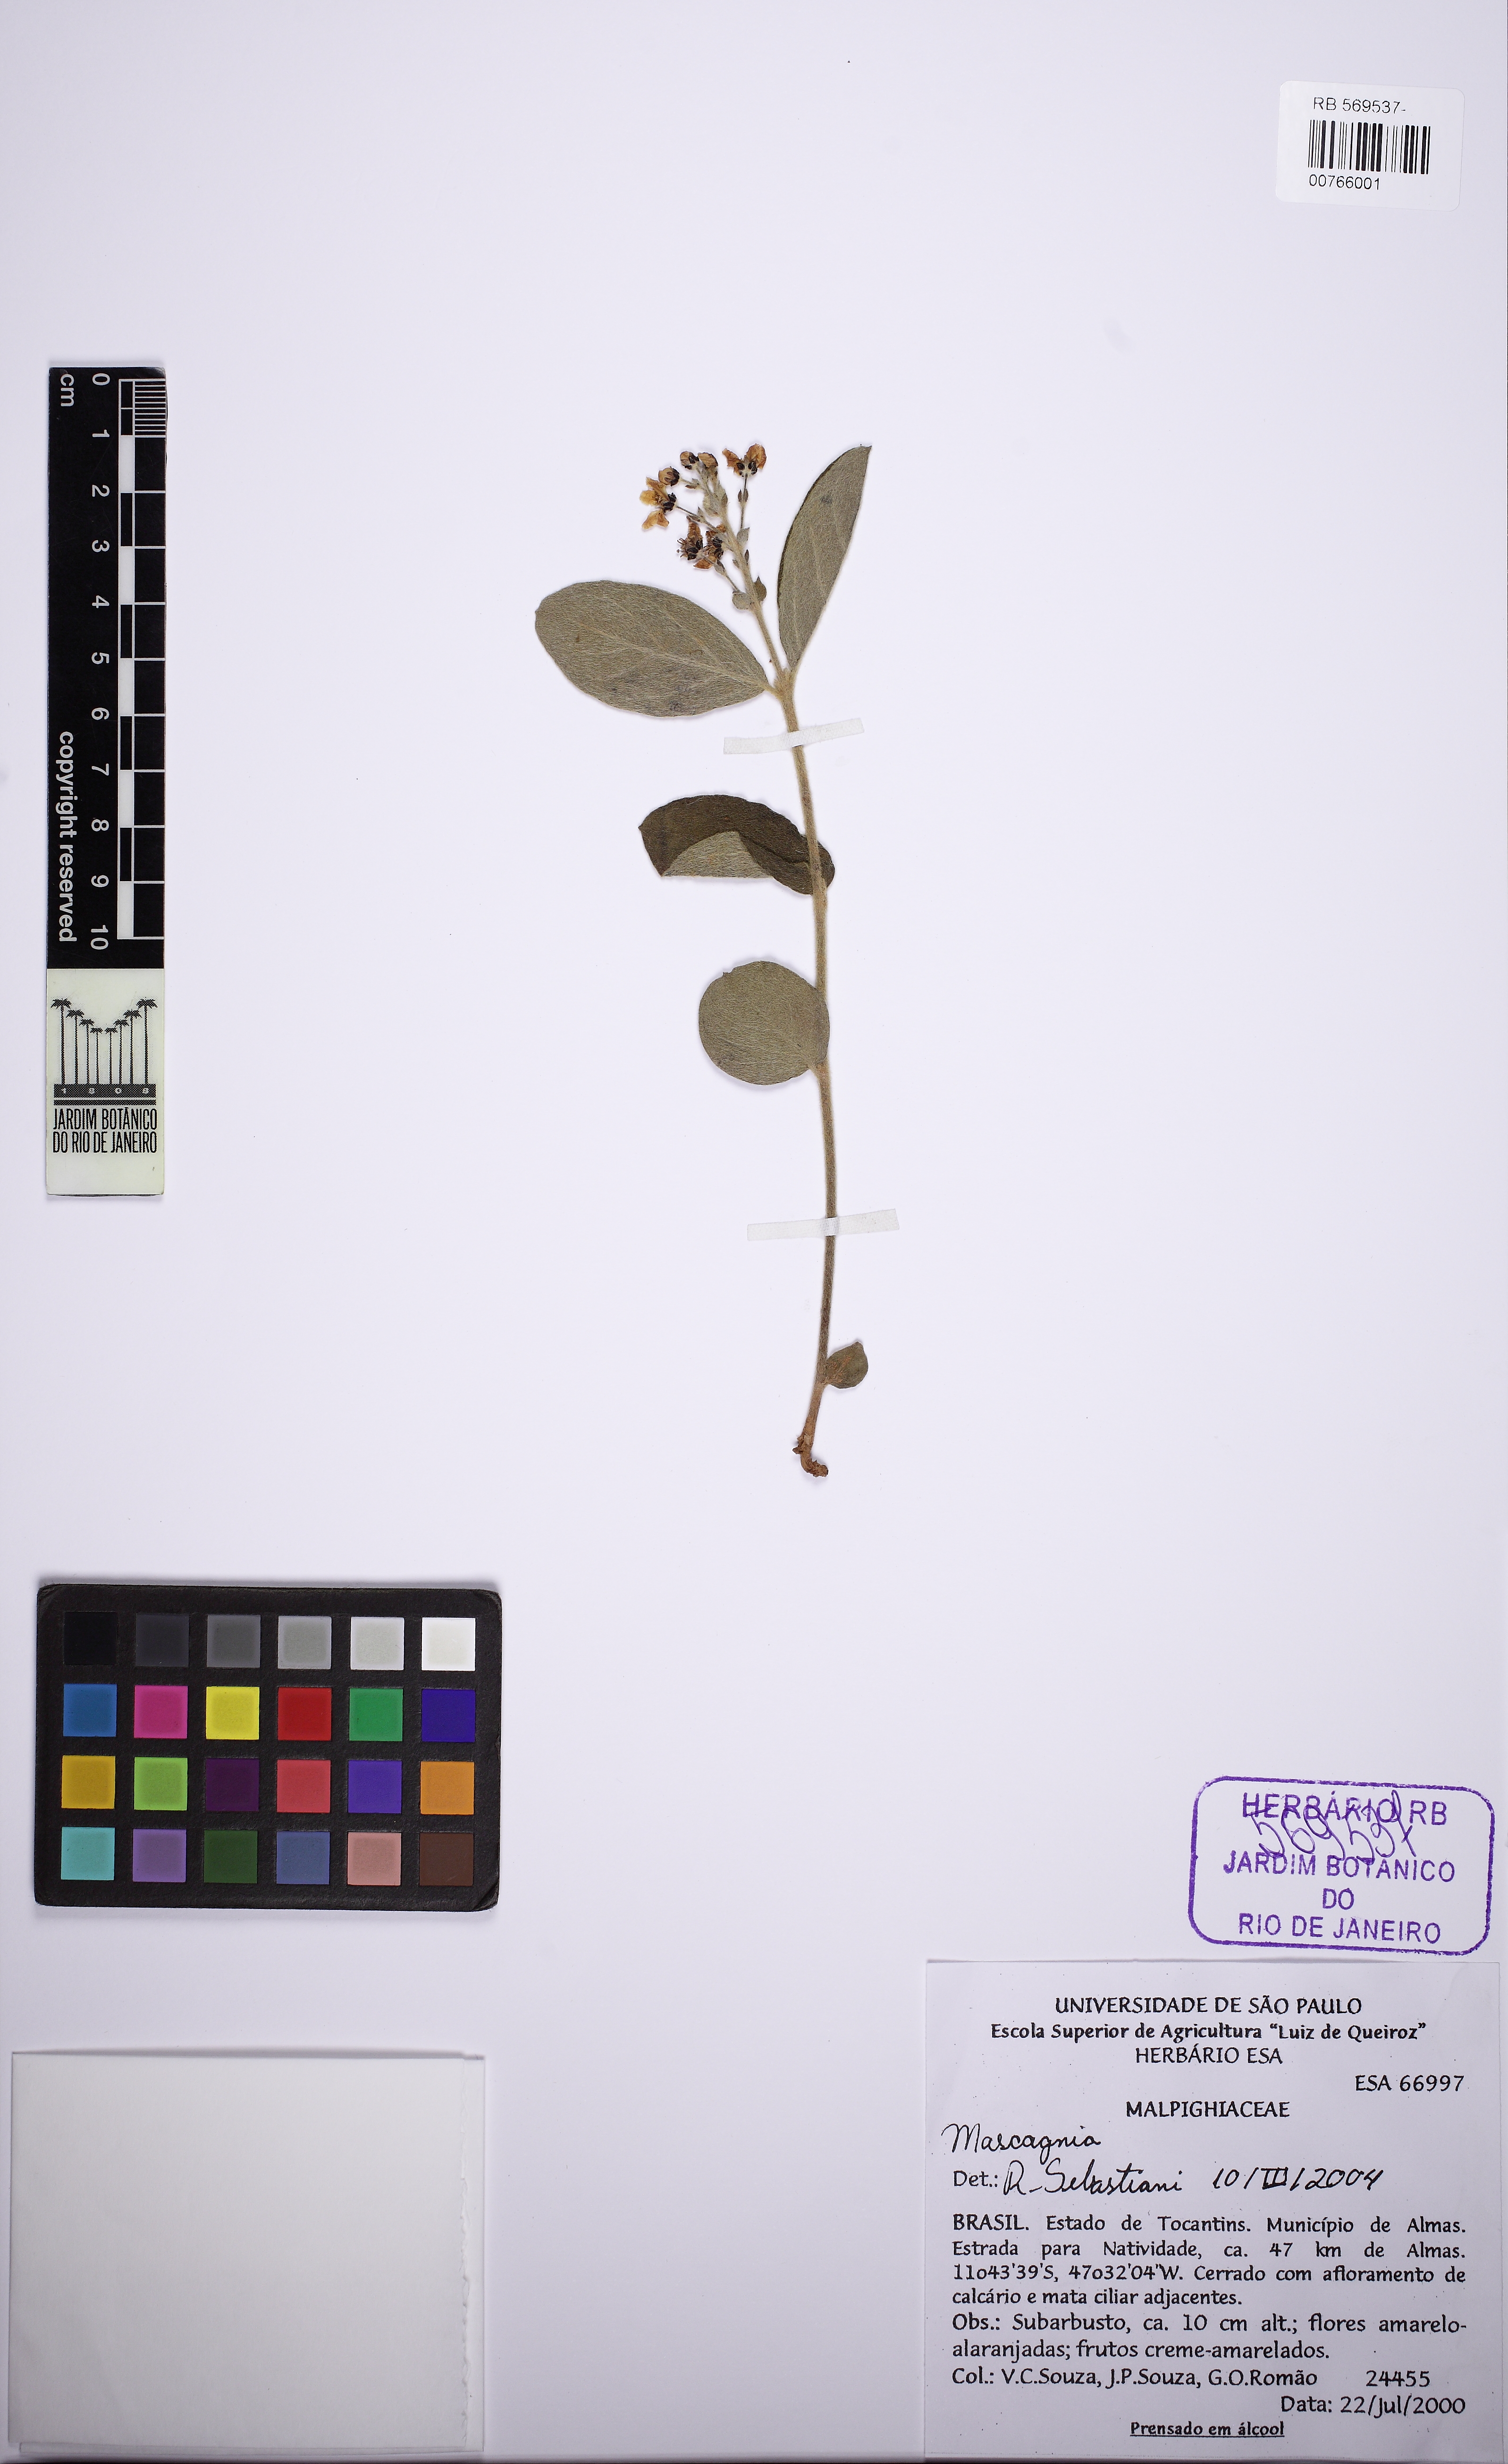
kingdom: Plantae
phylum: Tracheophyta
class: Magnoliopsida
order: Malpighiales
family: Malpighiaceae
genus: Glicophyllum
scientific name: Glicophyllum ambiguum
